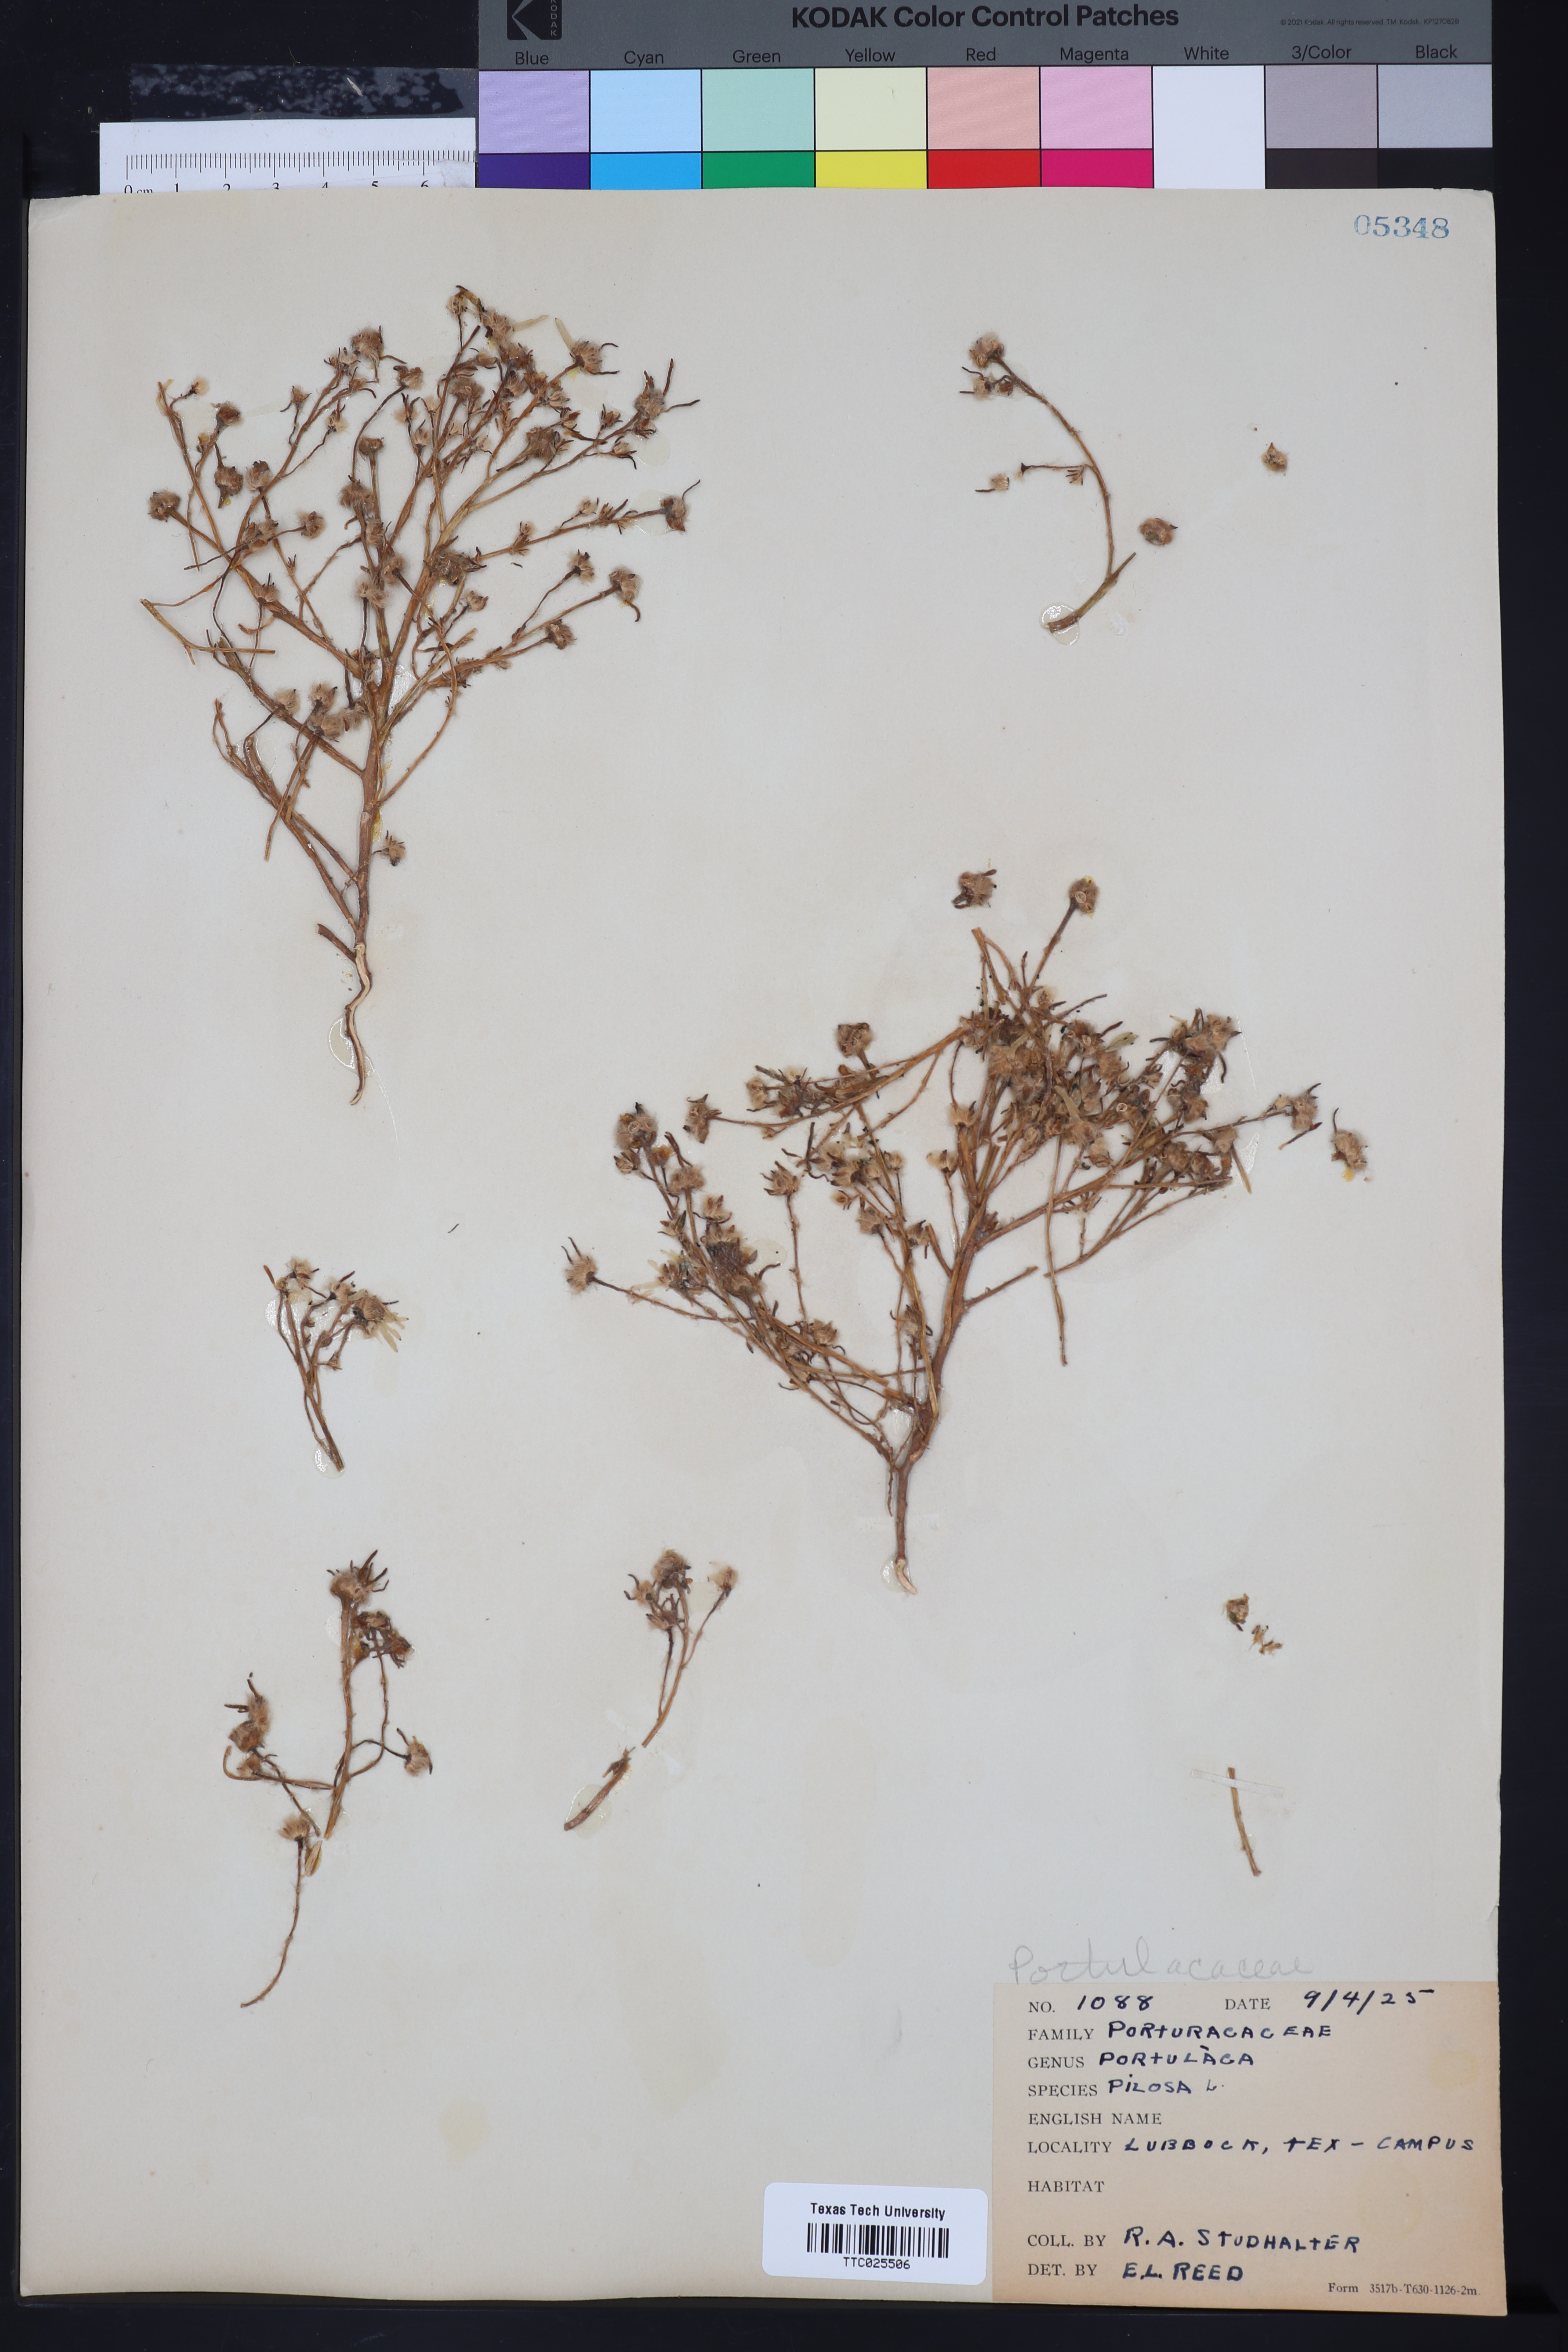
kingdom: Plantae
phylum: Tracheophyta
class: Magnoliopsida
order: Caryophyllales
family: Portulacaceae
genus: Portulaca
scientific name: Portulaca pilosa
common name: Kiss me quick
